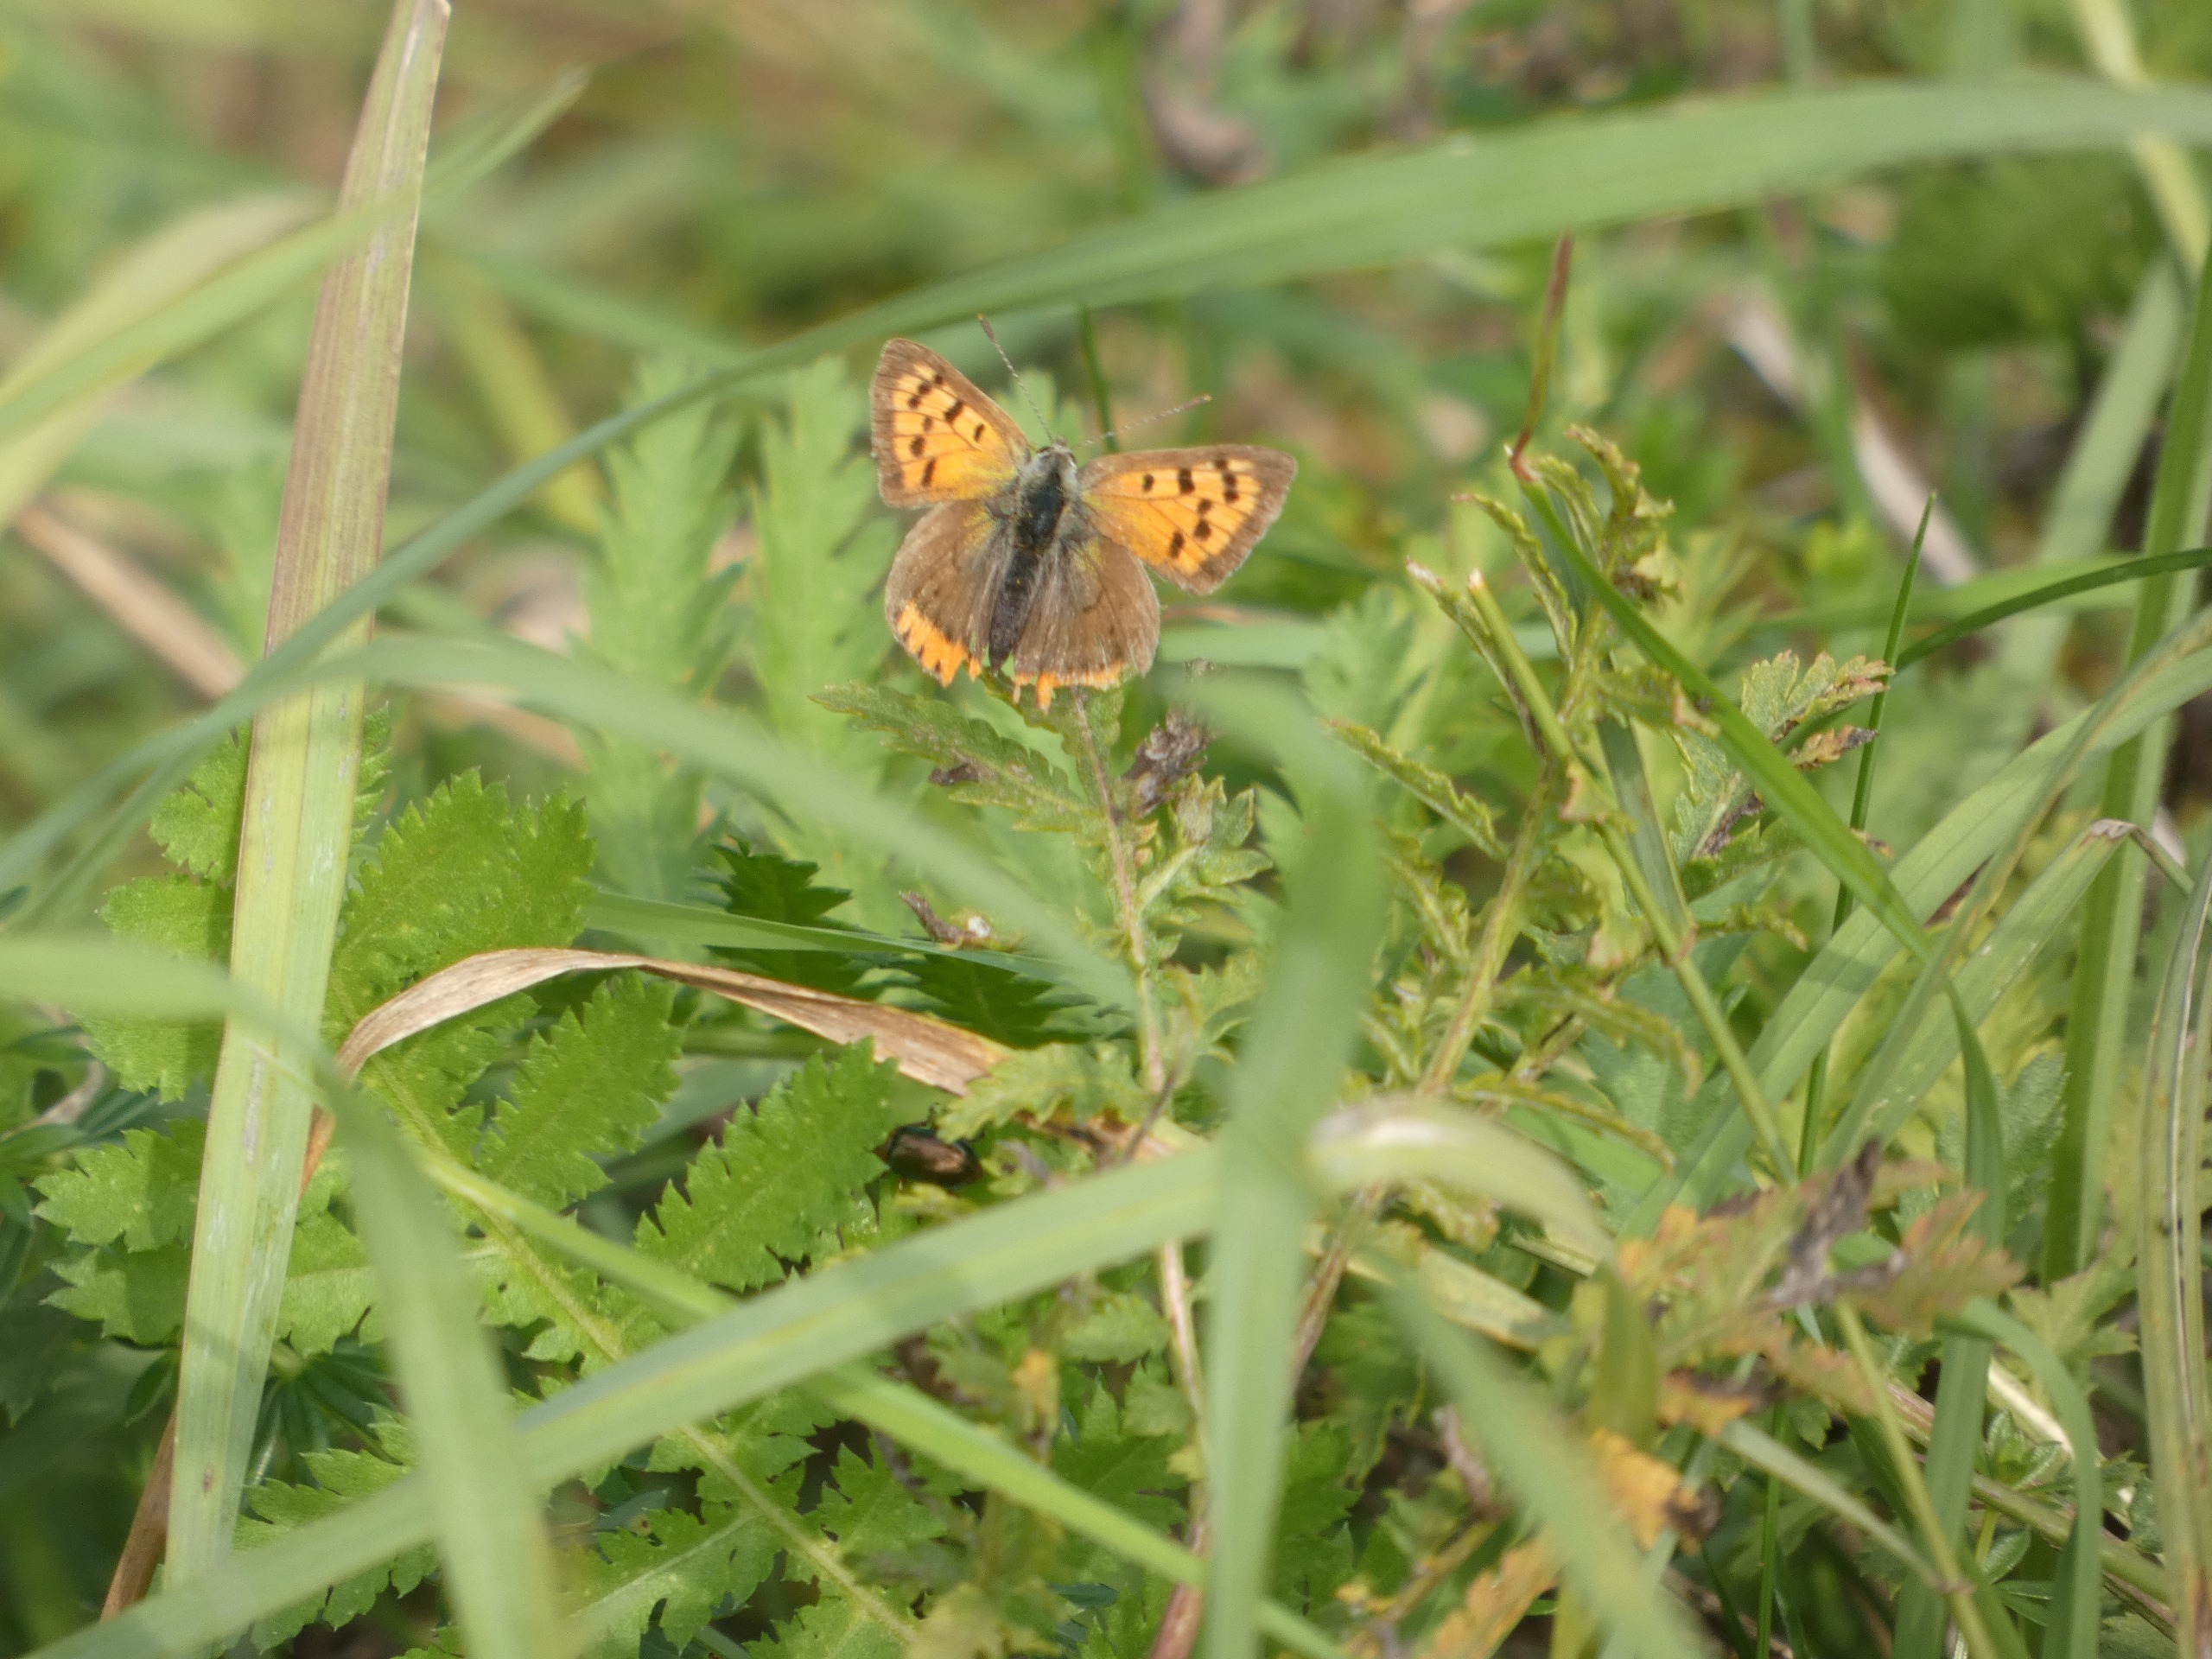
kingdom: Animalia
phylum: Arthropoda
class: Insecta
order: Lepidoptera
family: Lycaenidae
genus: Lycaena
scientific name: Lycaena phlaeas
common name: Lille ildfugl
